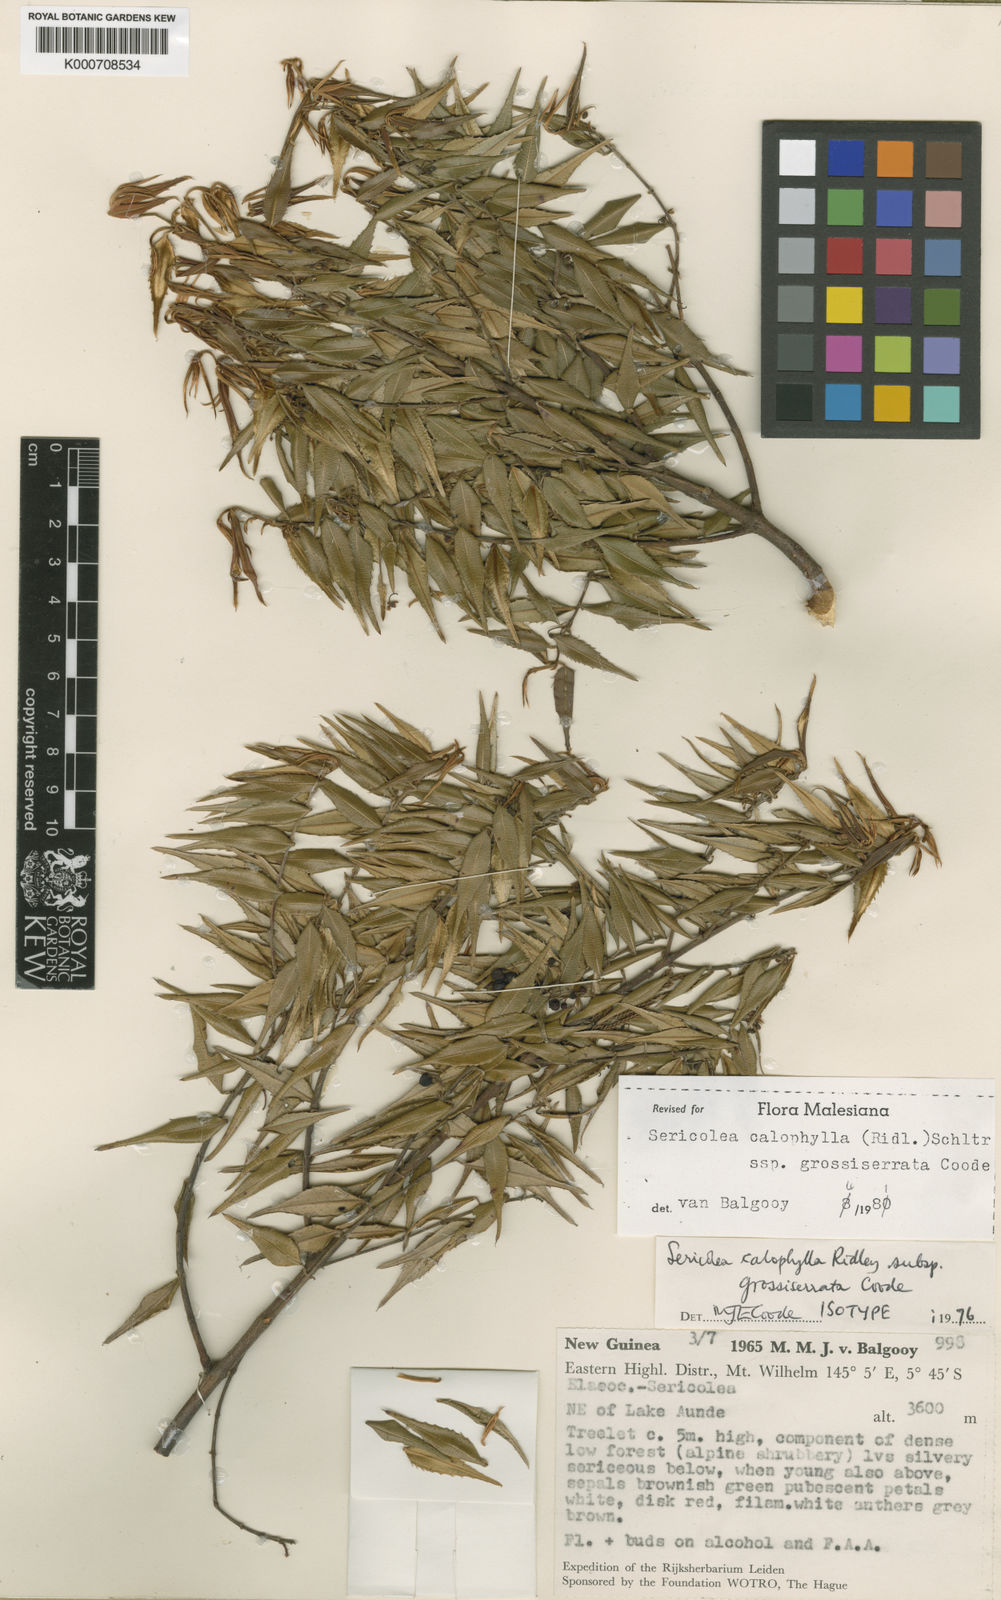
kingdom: Plantae
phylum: Tracheophyta
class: Magnoliopsida
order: Oxalidales
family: Elaeocarpaceae
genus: Sericolea
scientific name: Sericolea calophylla
